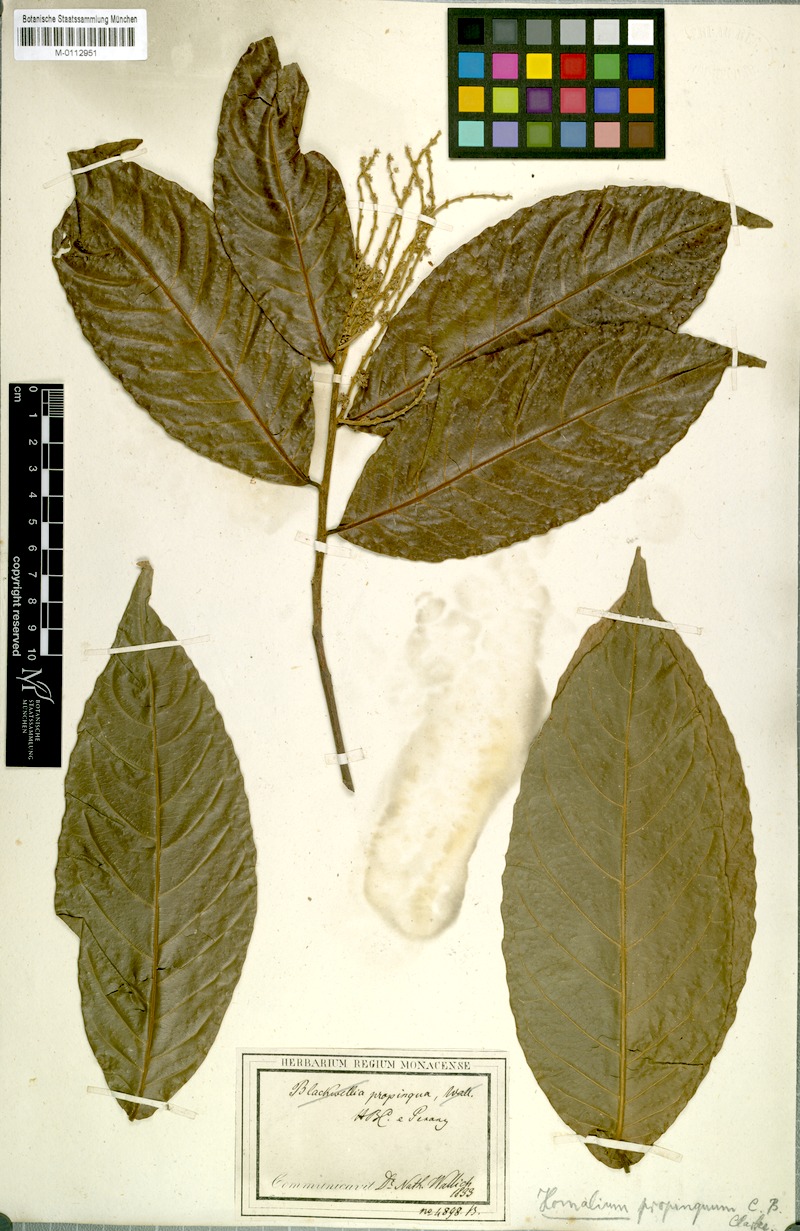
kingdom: Plantae
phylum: Tracheophyta
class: Magnoliopsida
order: Malpighiales
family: Salicaceae
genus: Homalium
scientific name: Homalium tomentosum
